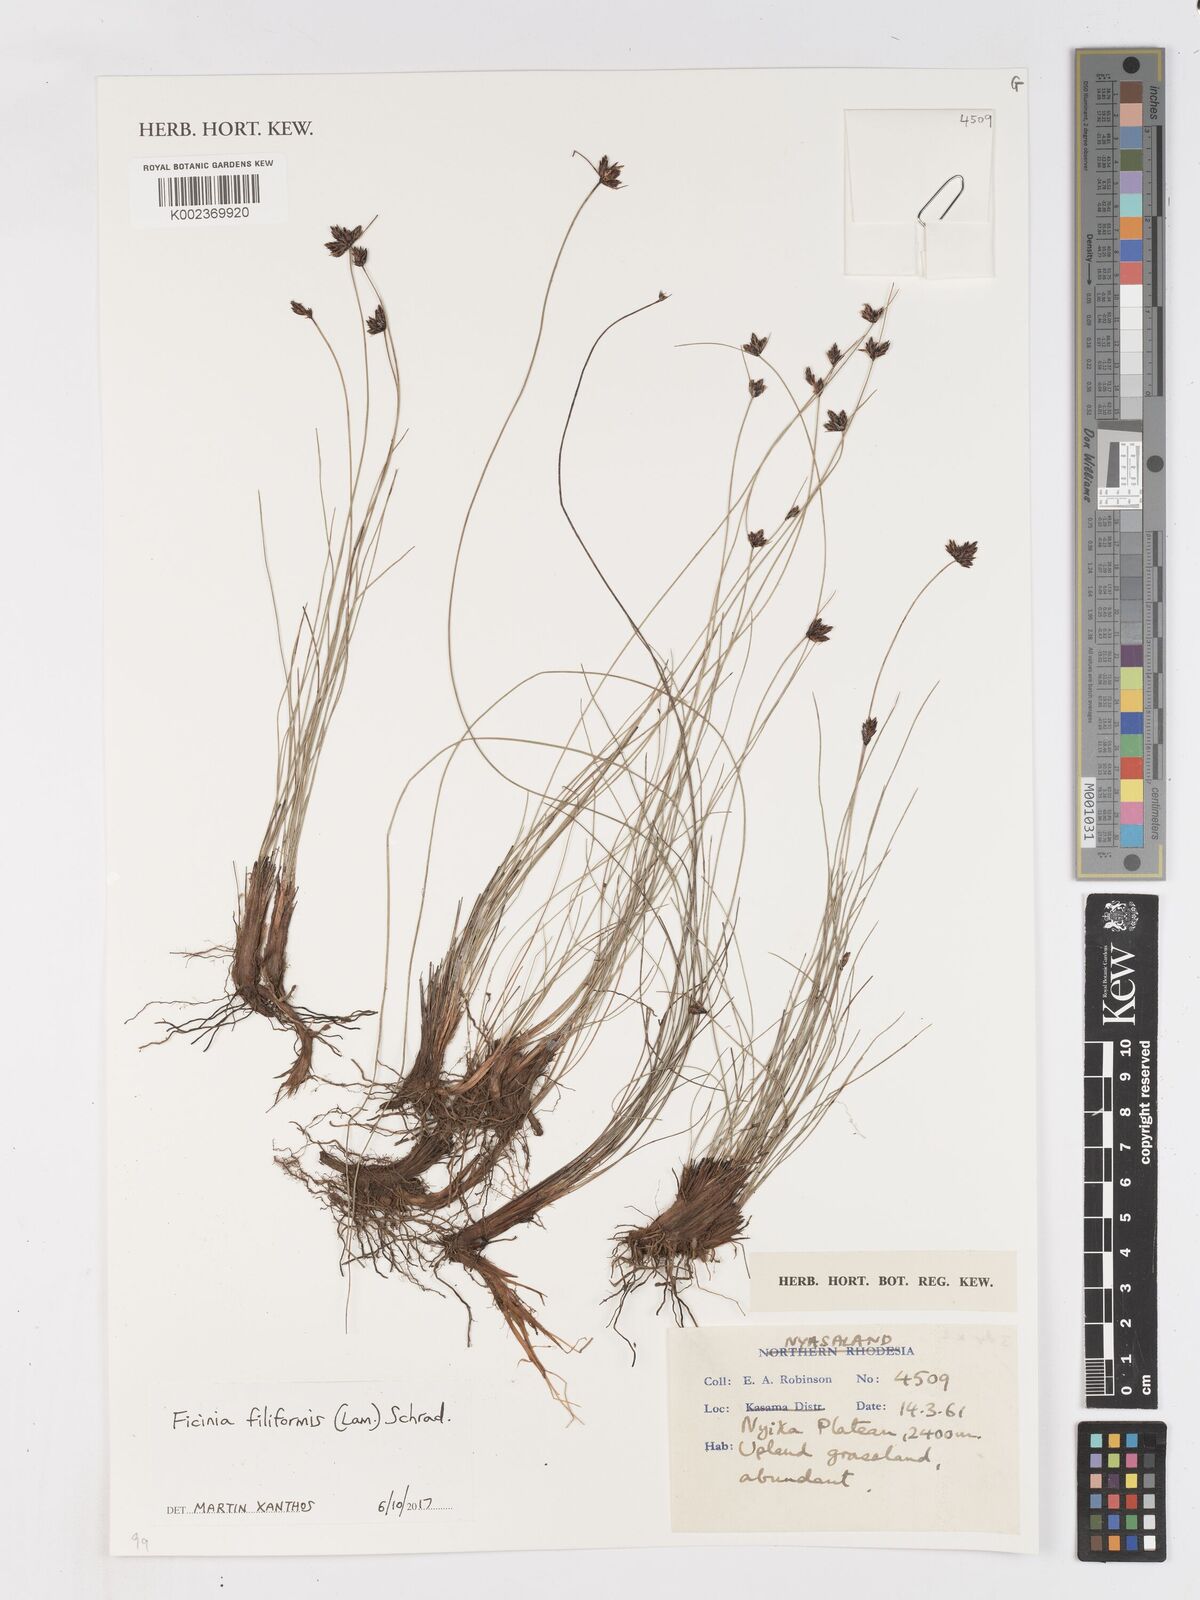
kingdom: Plantae
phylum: Tracheophyta
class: Liliopsida
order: Poales
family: Cyperaceae
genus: Ficinia
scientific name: Ficinia filiformis
